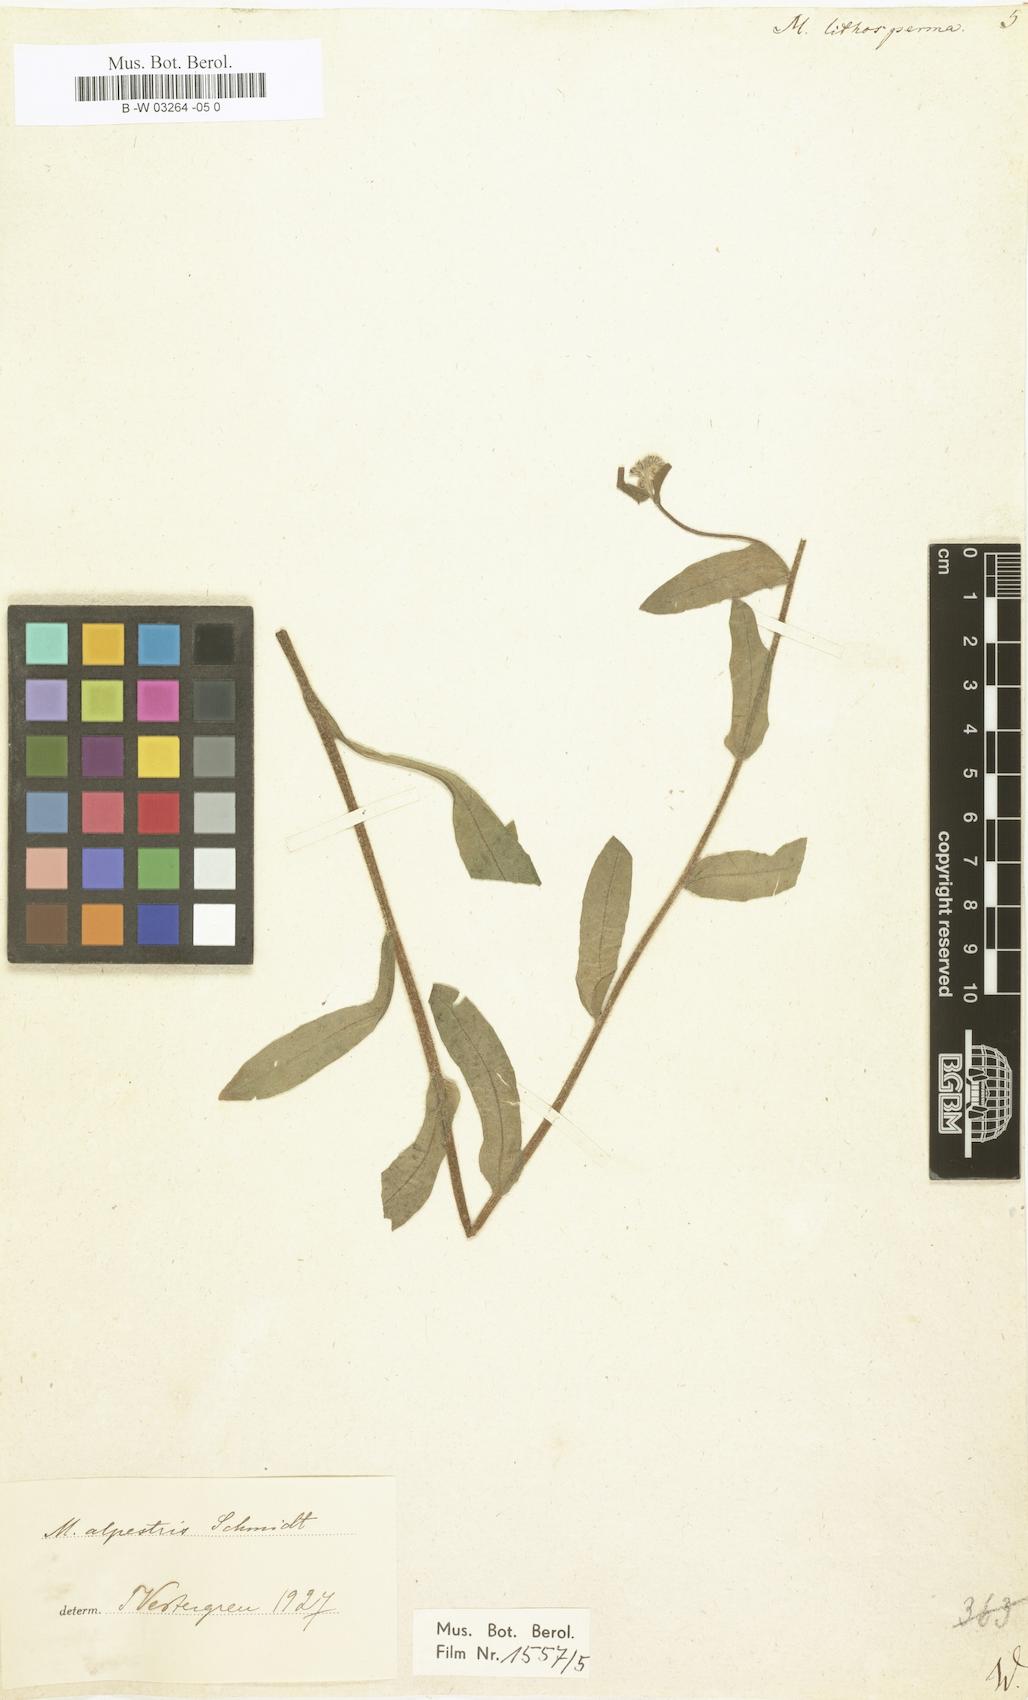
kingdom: Plantae
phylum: Tracheophyta
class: Magnoliopsida
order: Boraginales
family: Boraginaceae
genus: Myosotis
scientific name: Myosotis
